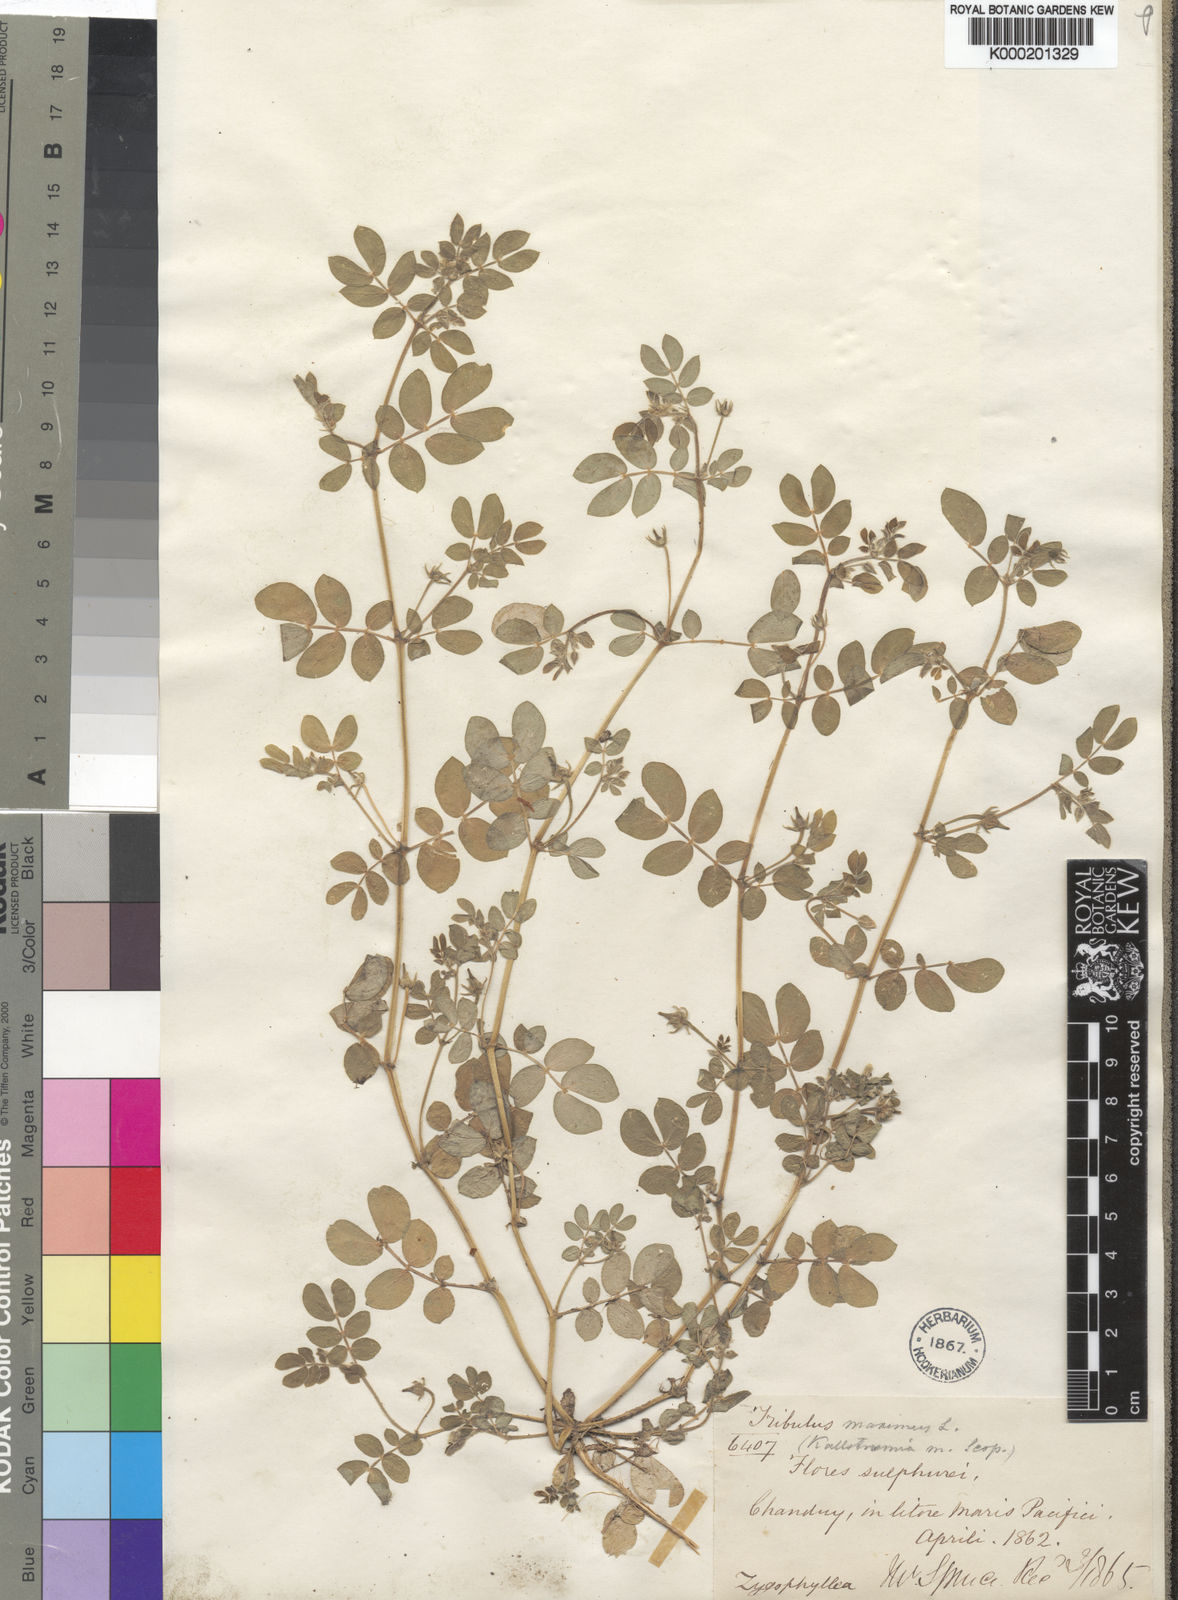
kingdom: Plantae
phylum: Tracheophyta
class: Magnoliopsida
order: Zygophyllales
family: Zygophyllaceae
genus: Kallstroemia
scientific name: Kallstroemia pubescens
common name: Caribbean caltrop
